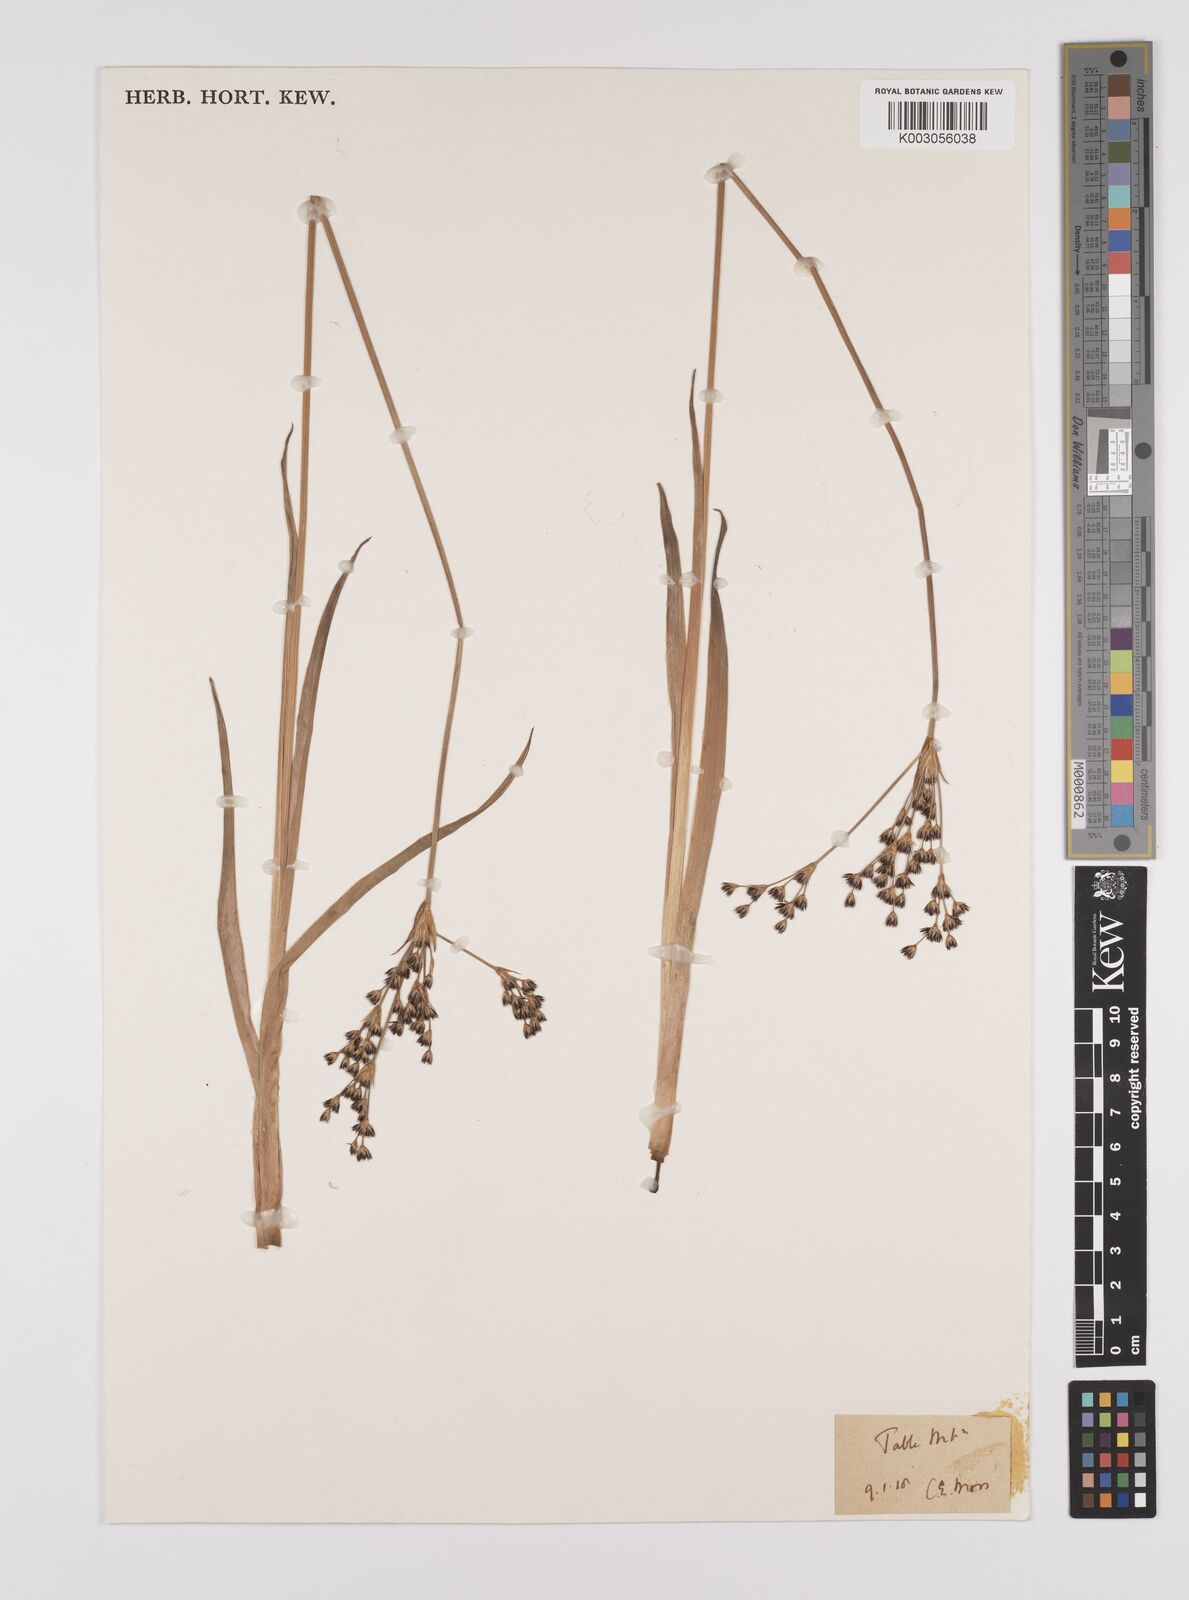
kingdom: Plantae
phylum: Tracheophyta
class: Liliopsida
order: Poales
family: Juncaceae
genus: Juncus
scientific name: Juncus lomatophyllus
